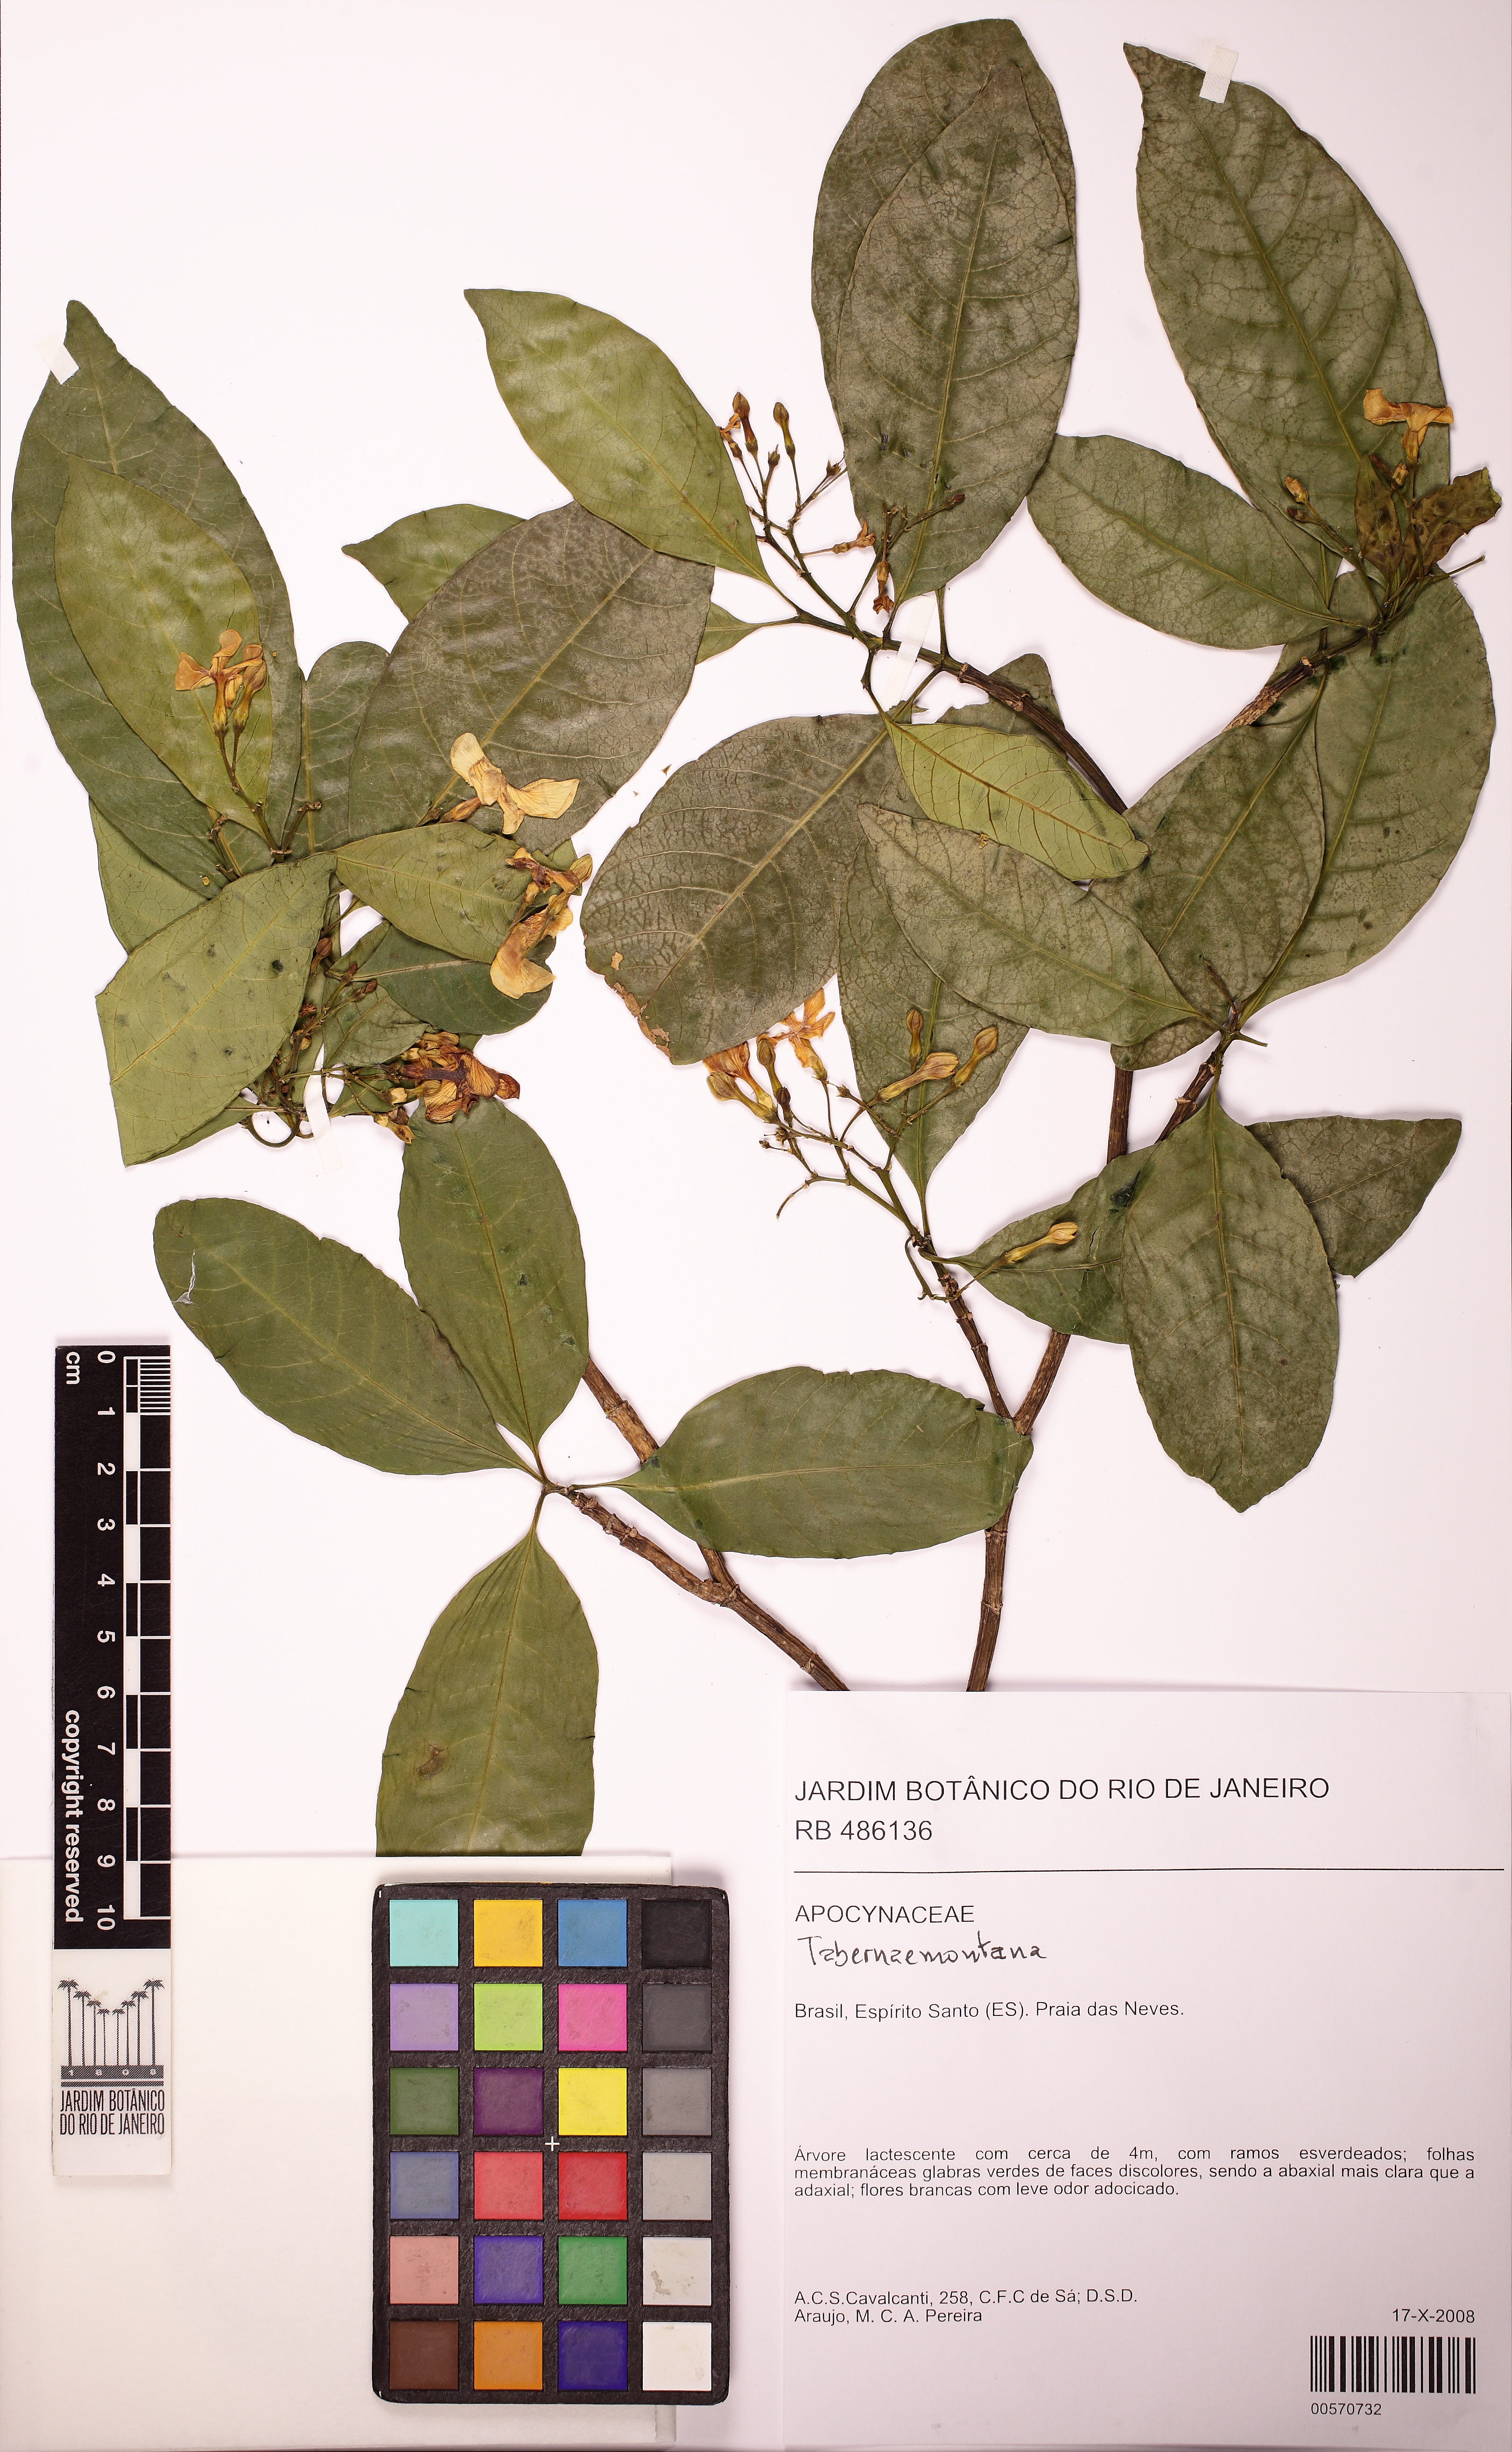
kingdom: Plantae
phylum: Tracheophyta
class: Magnoliopsida
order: Gentianales
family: Apocynaceae
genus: Tabernaemontana
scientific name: Tabernaemontana laeta
